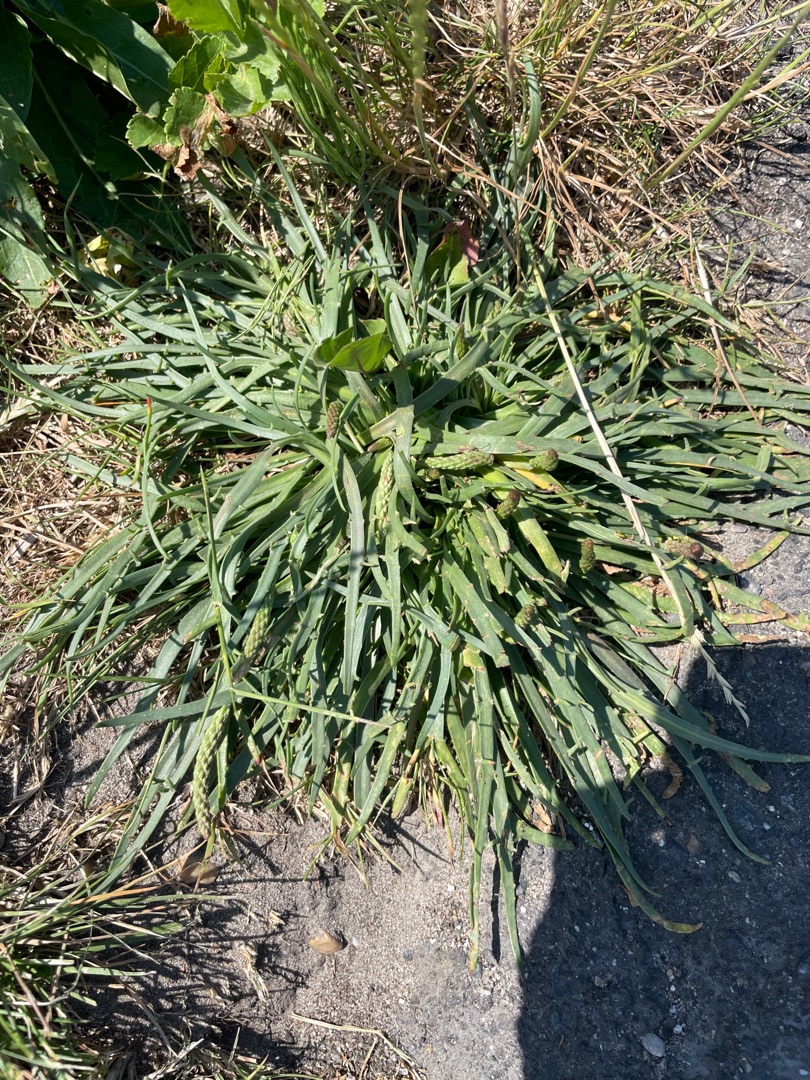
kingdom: Plantae
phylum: Tracheophyta
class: Magnoliopsida
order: Lamiales
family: Plantaginaceae
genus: Plantago
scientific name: Plantago maritima
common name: Strand-vejbred
